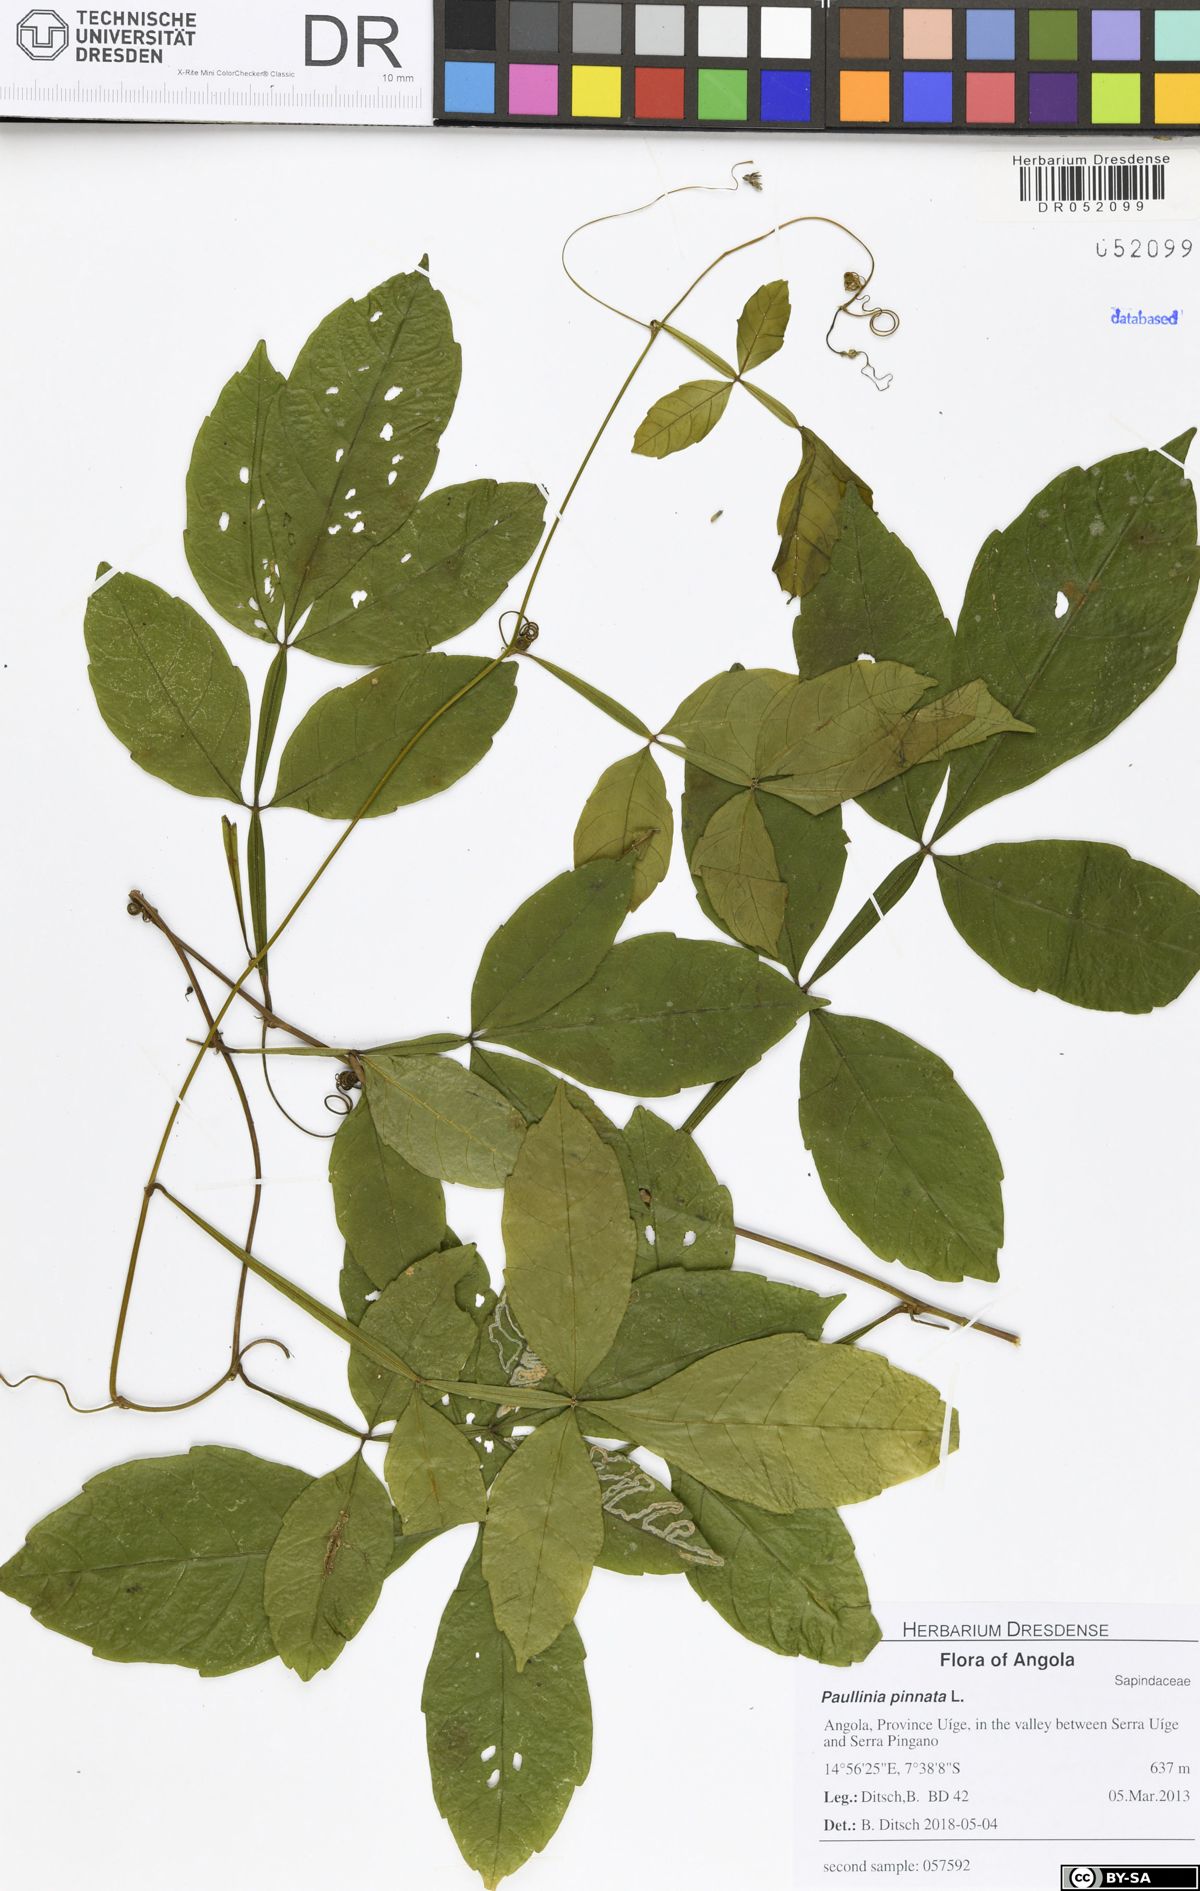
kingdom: Plantae
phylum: Tracheophyta
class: Magnoliopsida
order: Sapindales
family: Sapindaceae
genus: Paullinia
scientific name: Paullinia pinnata
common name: Barbasco
